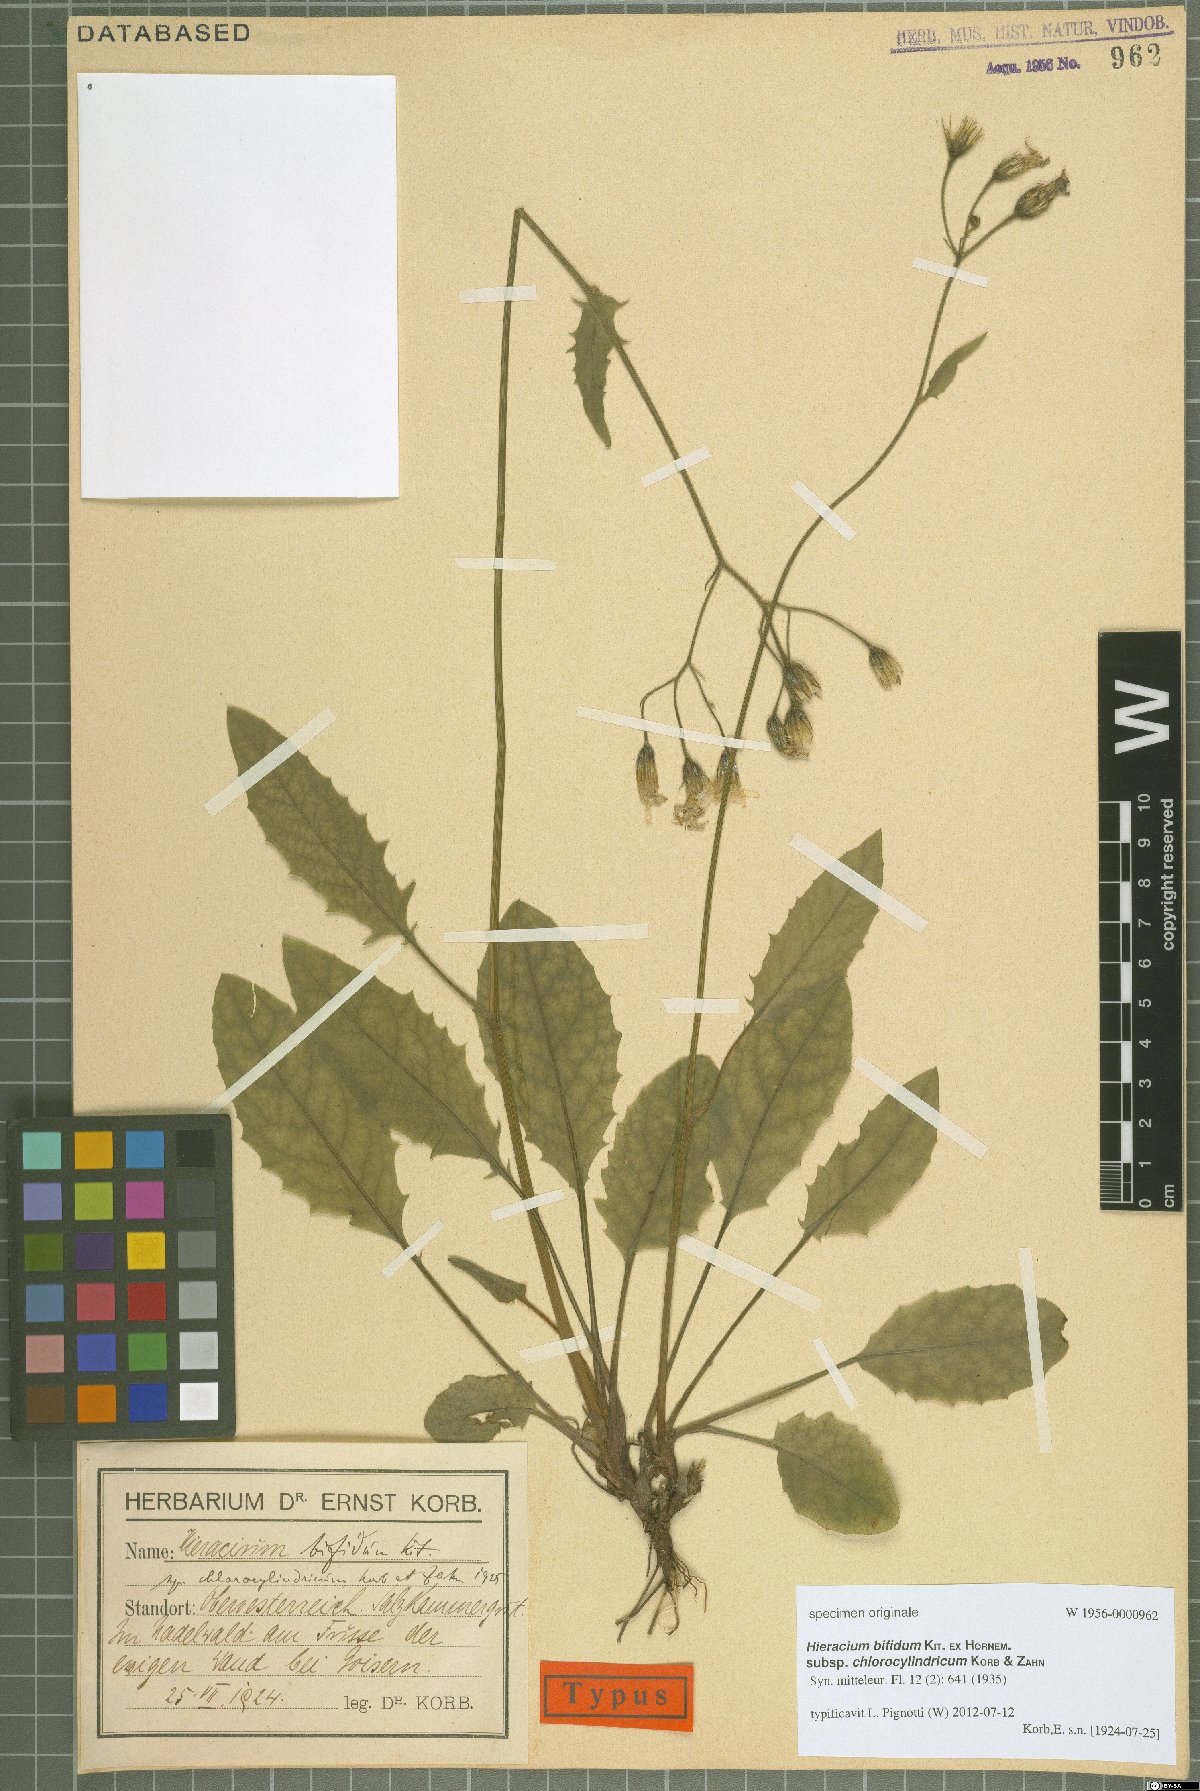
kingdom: Plantae
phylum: Tracheophyta
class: Magnoliopsida
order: Asterales
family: Asteraceae
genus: Hieracium
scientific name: Hieracium subcaesium
